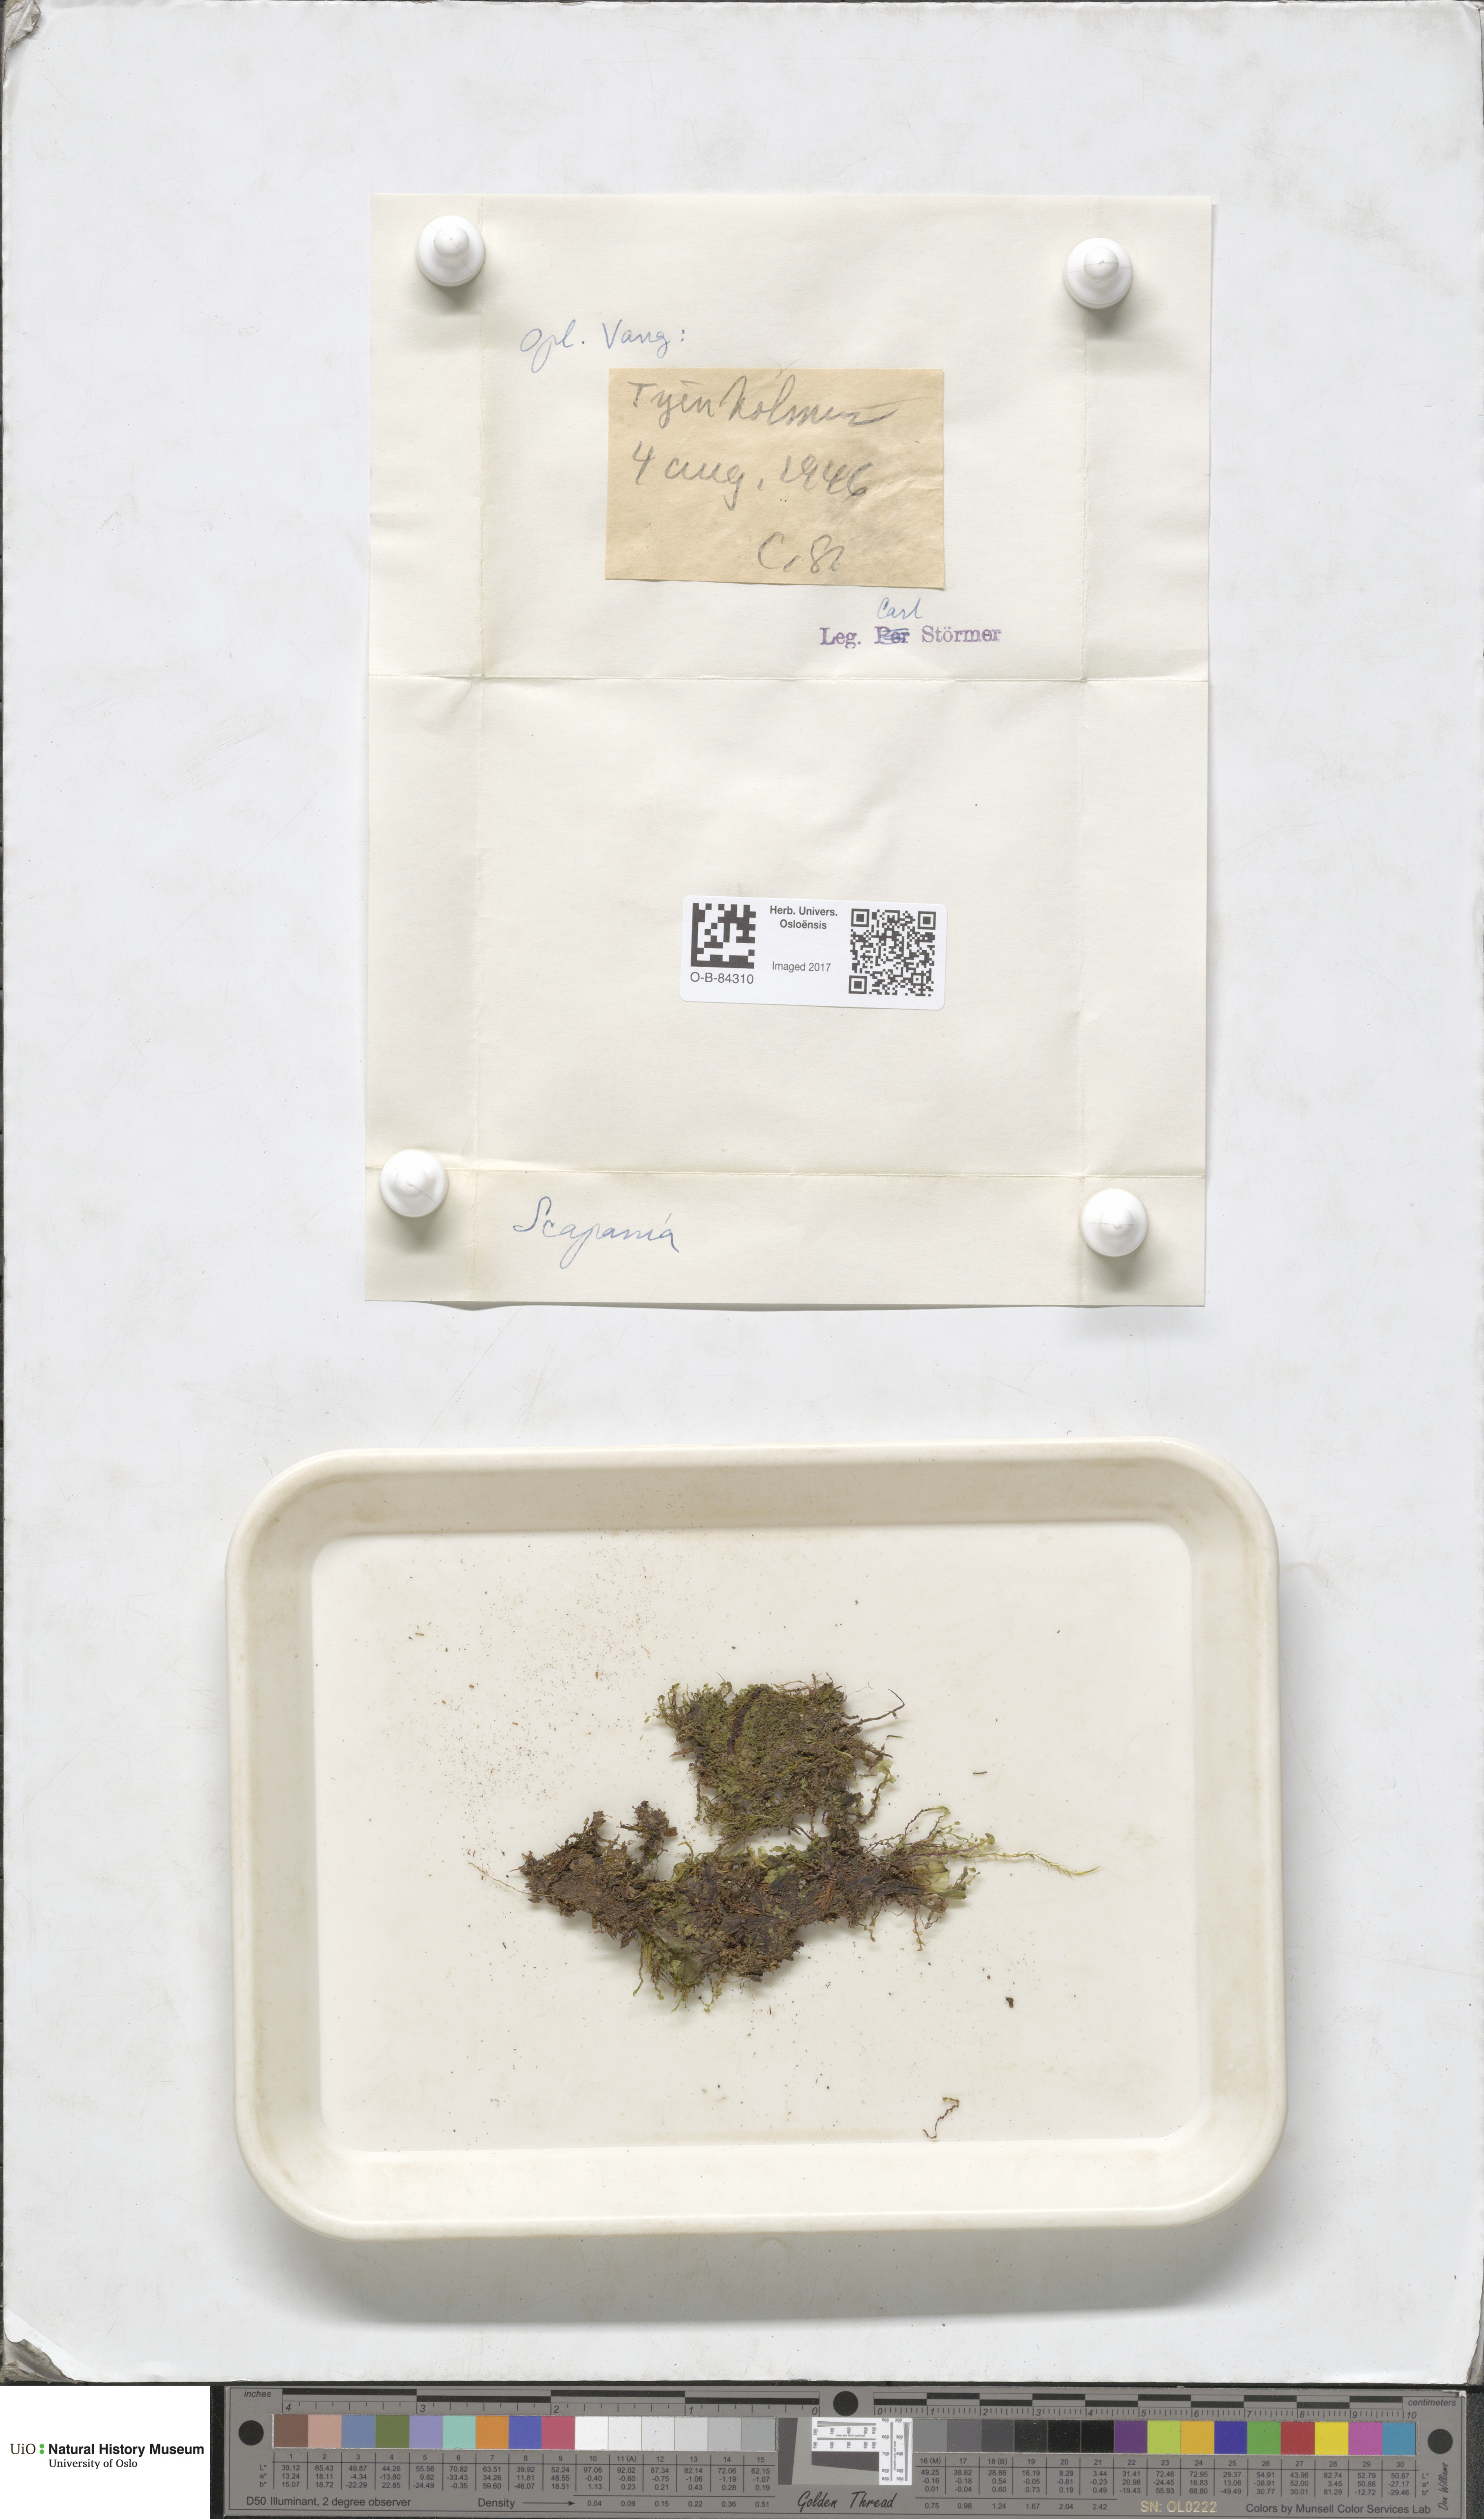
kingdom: Plantae
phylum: Marchantiophyta
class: Jungermanniopsida
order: Jungermanniales
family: Scapaniaceae
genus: Scapania
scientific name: Scapania
